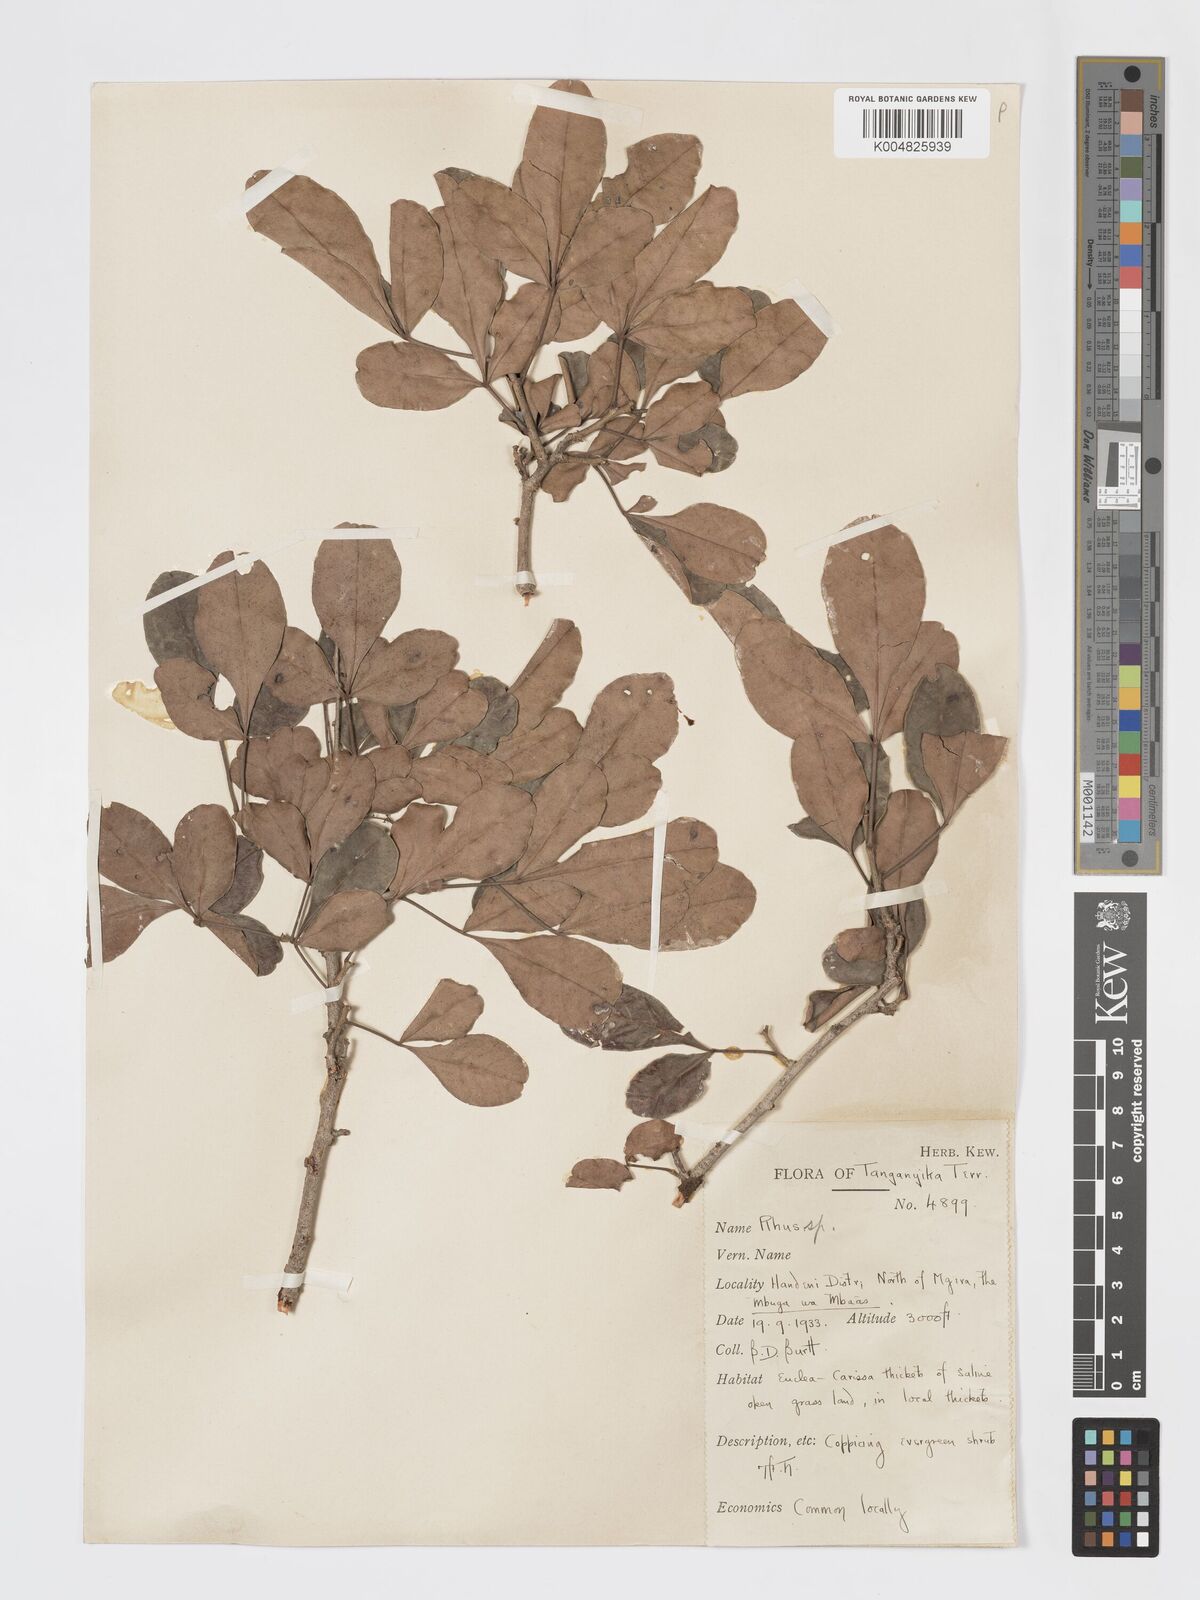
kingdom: Plantae
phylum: Tracheophyta
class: Magnoliopsida
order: Sapindales
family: Anacardiaceae
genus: Searsia
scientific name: Searsia natalensis
